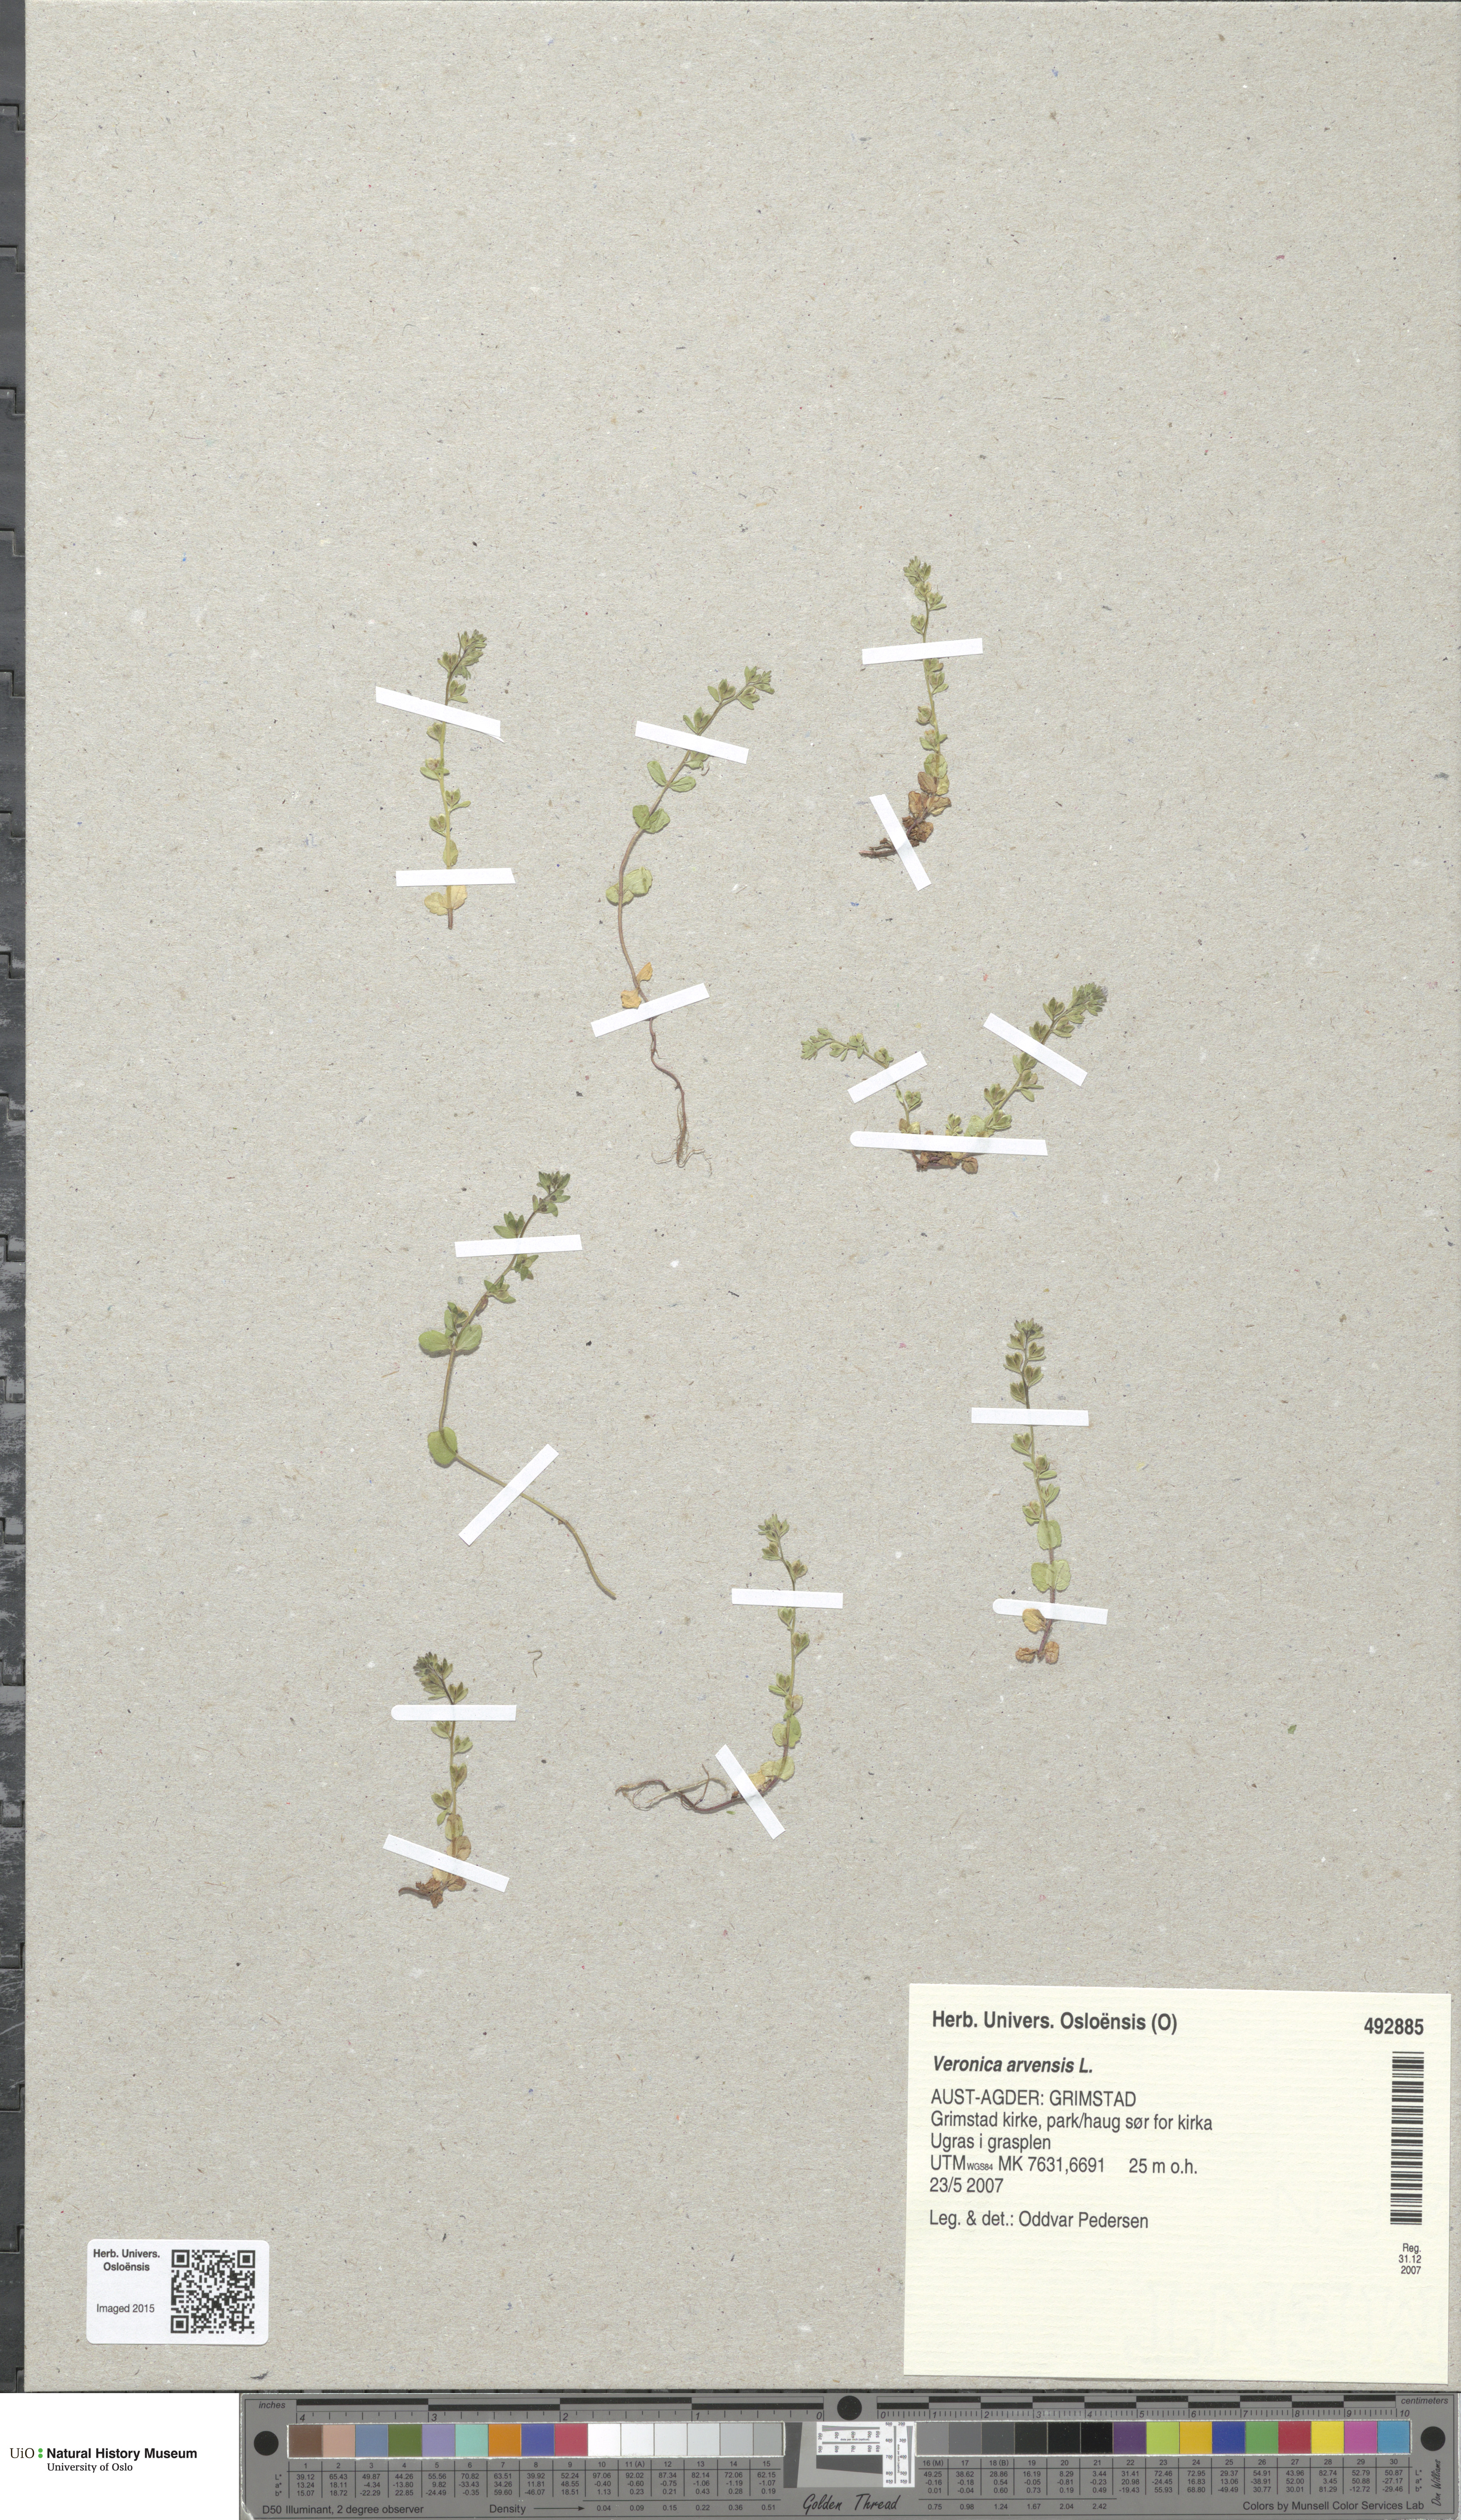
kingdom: Plantae
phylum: Tracheophyta
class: Magnoliopsida
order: Lamiales
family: Plantaginaceae
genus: Veronica
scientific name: Veronica arvensis
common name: Corn speedwell
